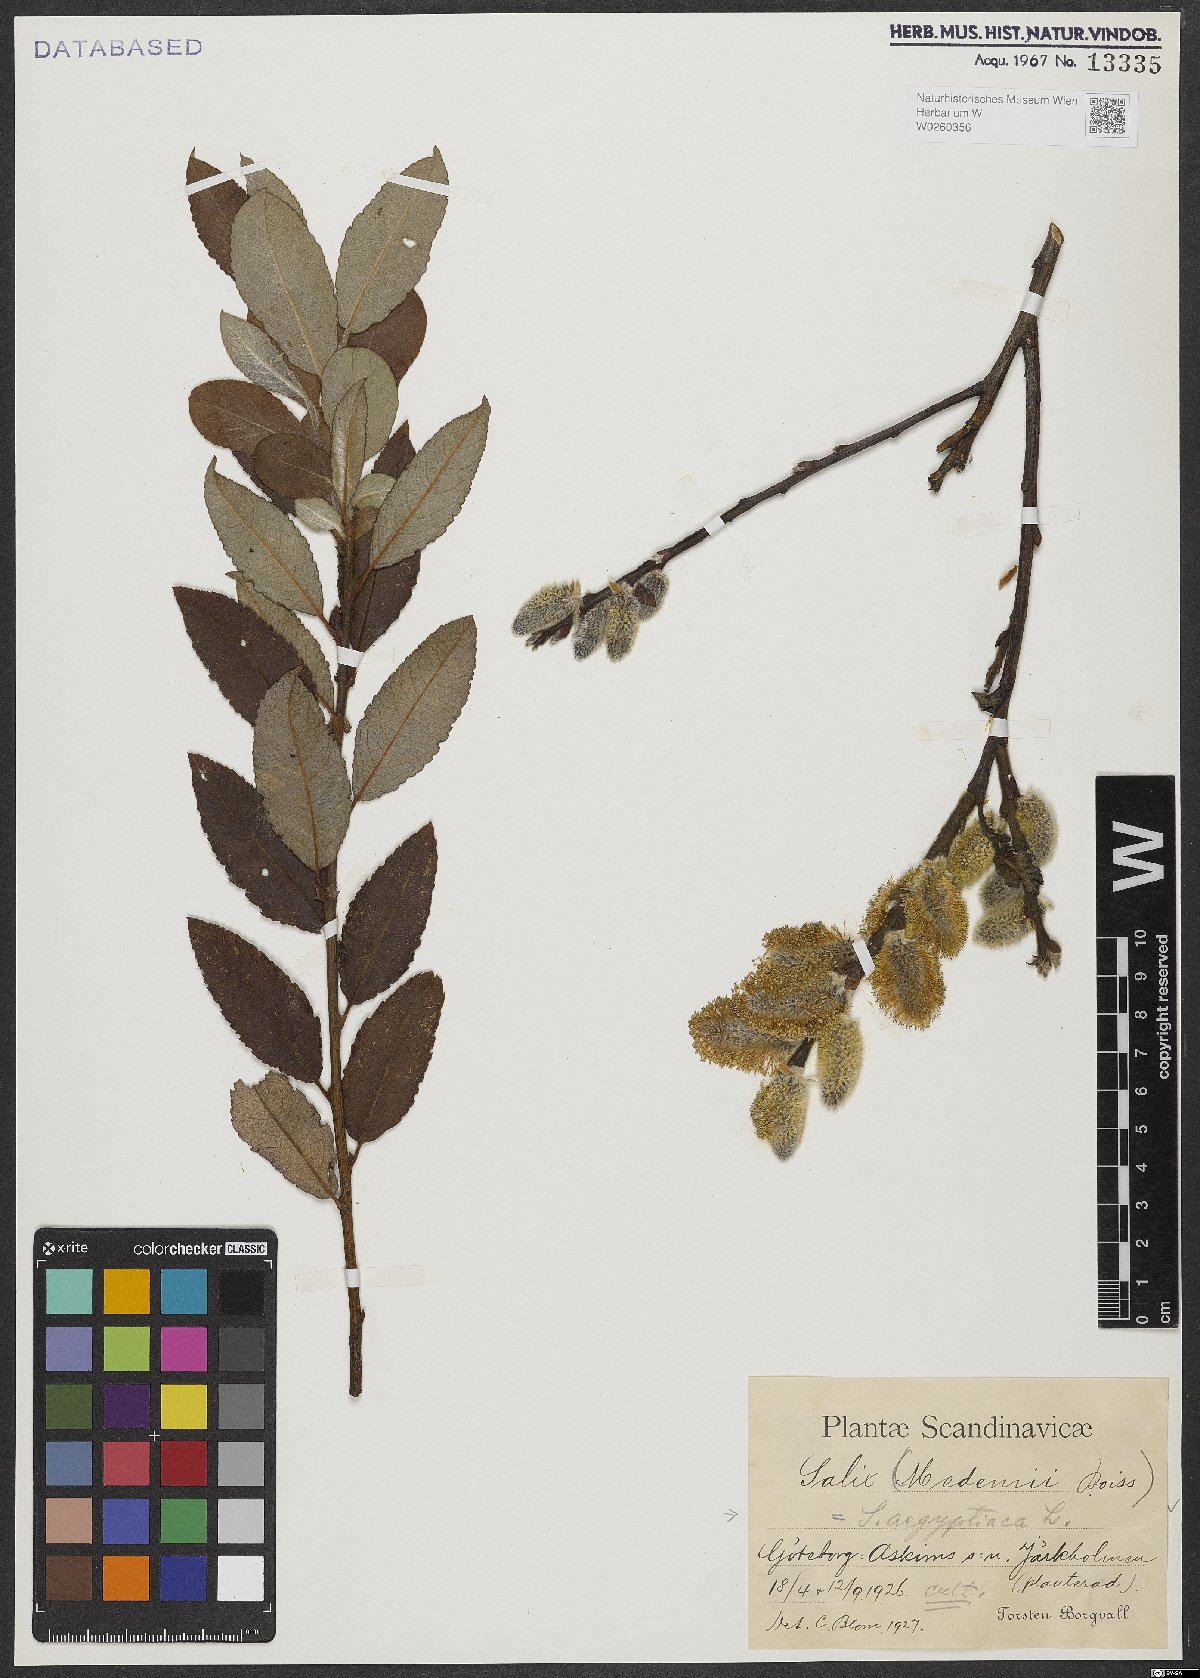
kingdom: Plantae
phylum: Tracheophyta
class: Magnoliopsida
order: Malpighiales
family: Salicaceae
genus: Salix
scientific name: Salix aegyptiaca
